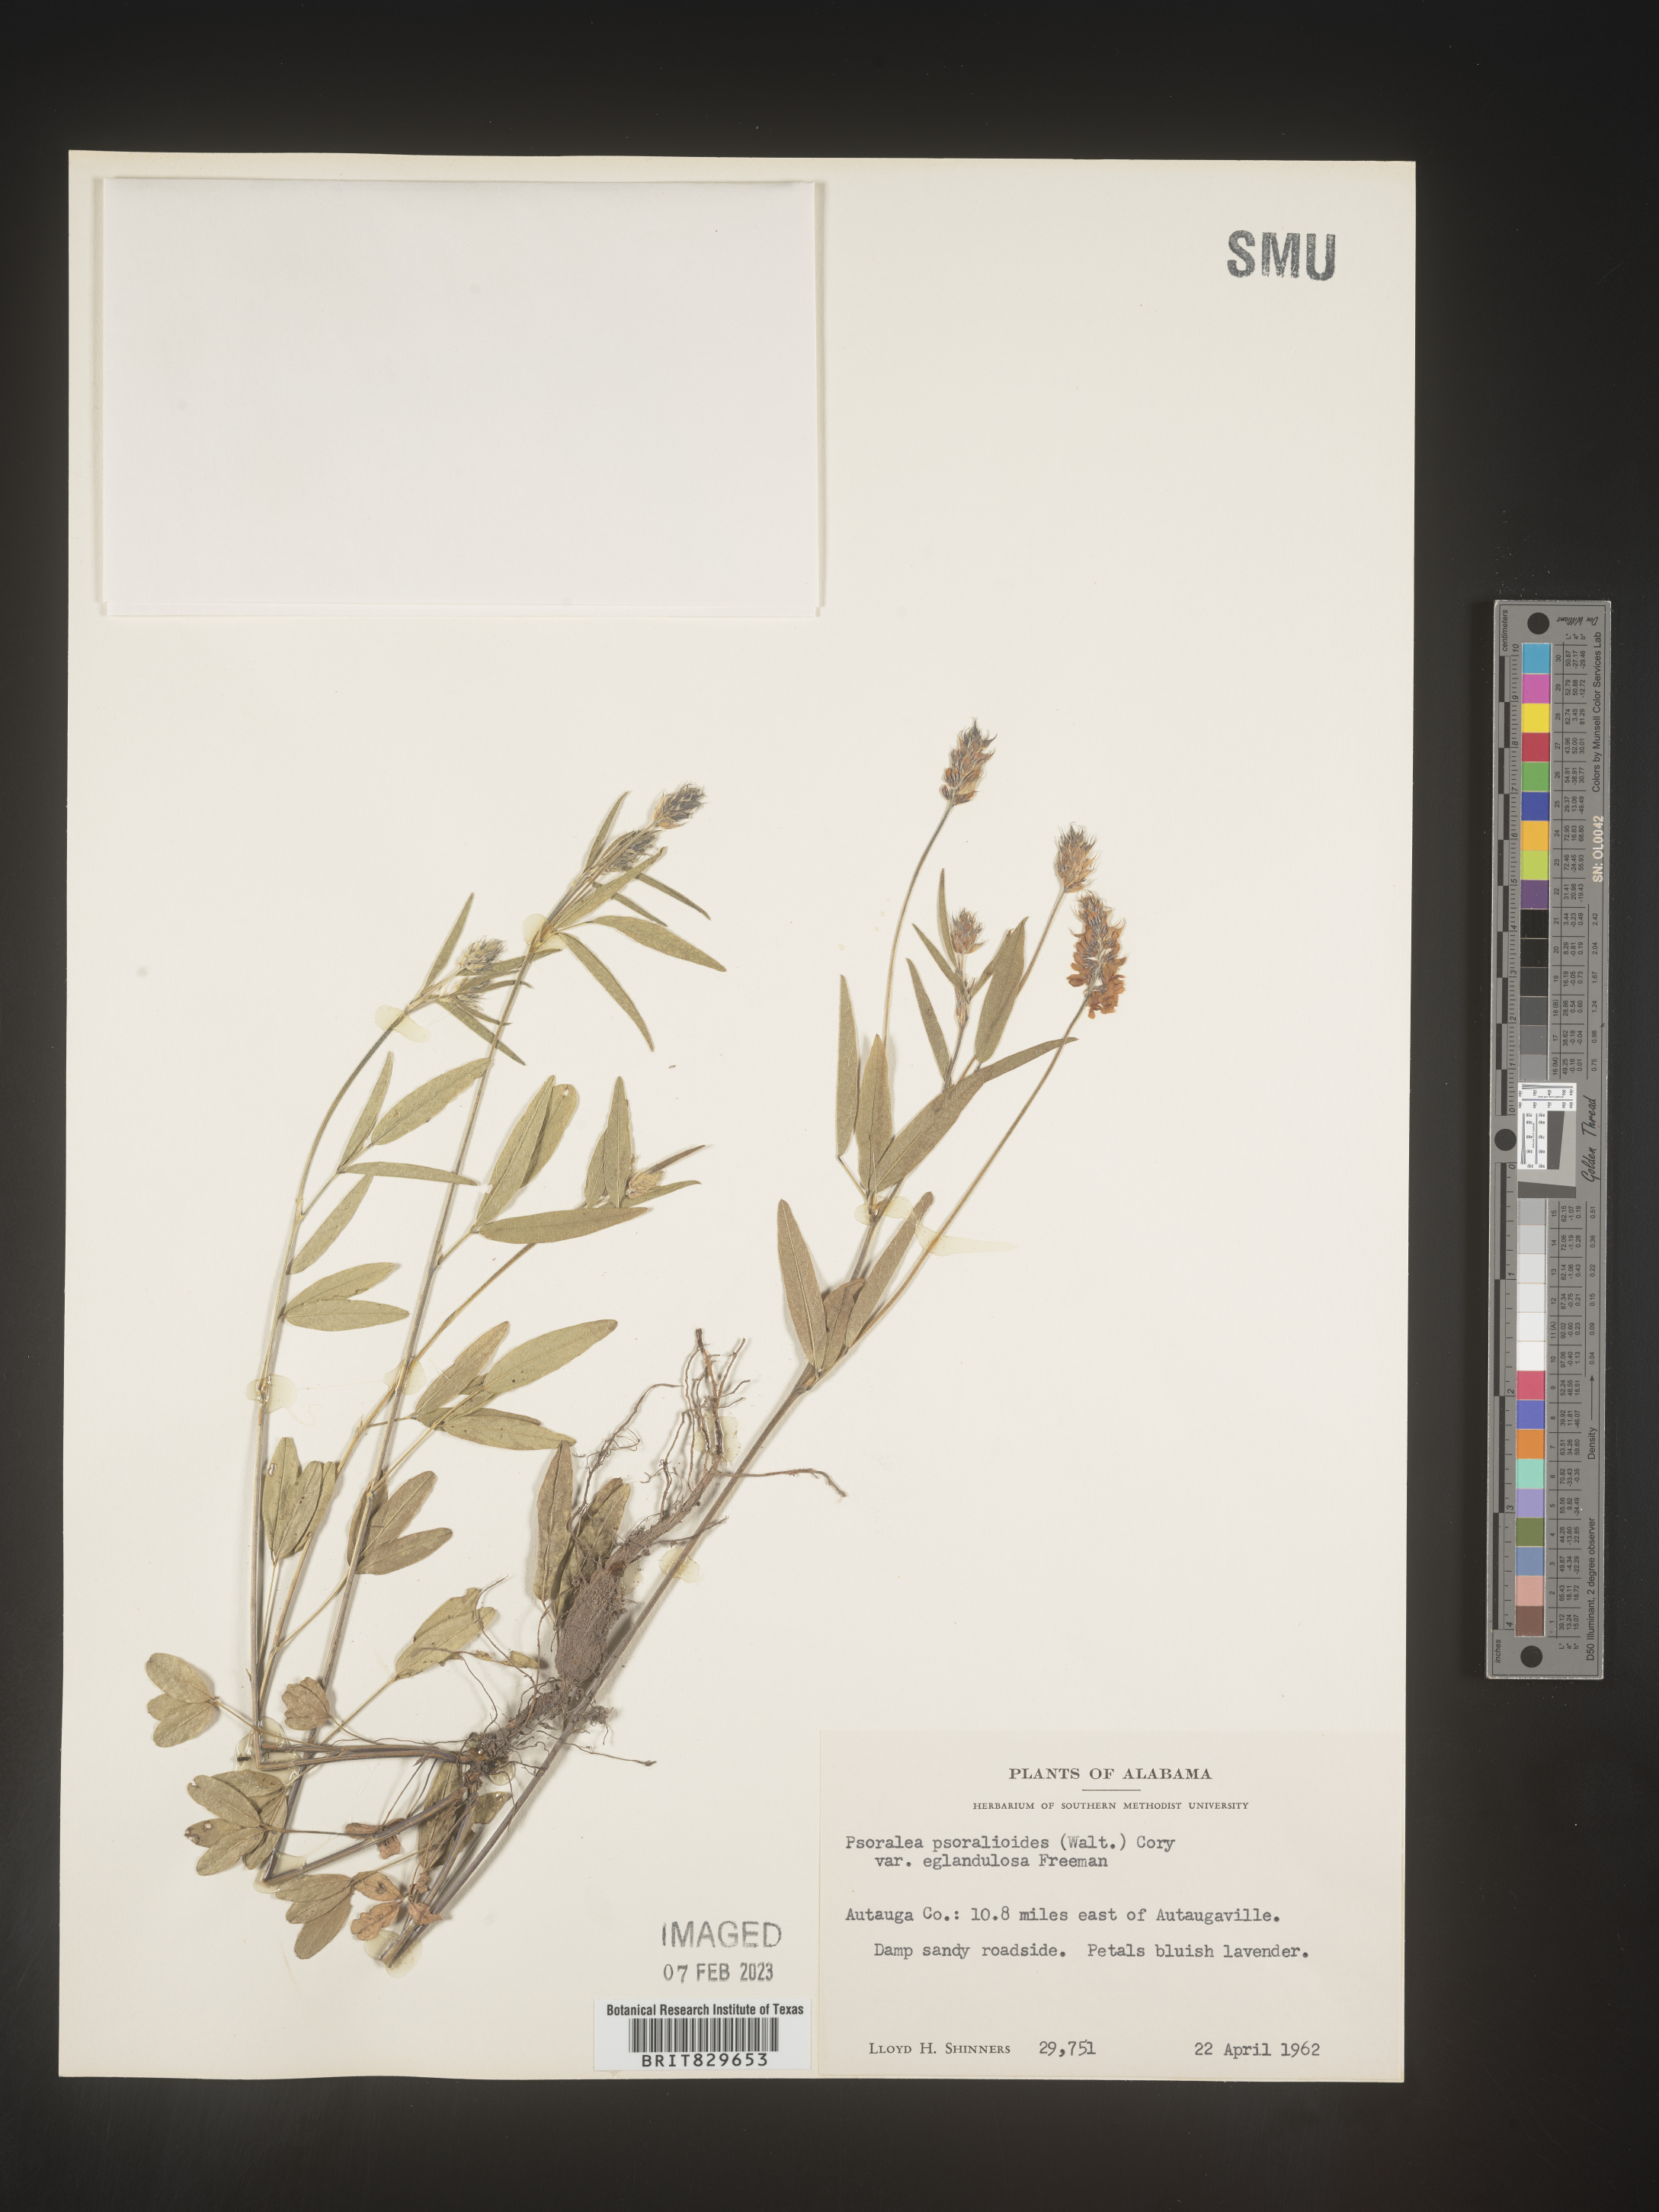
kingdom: Plantae
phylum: Tracheophyta
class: Magnoliopsida
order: Fabales
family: Fabaceae
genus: Orbexilum
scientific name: Orbexilum psoralioides
